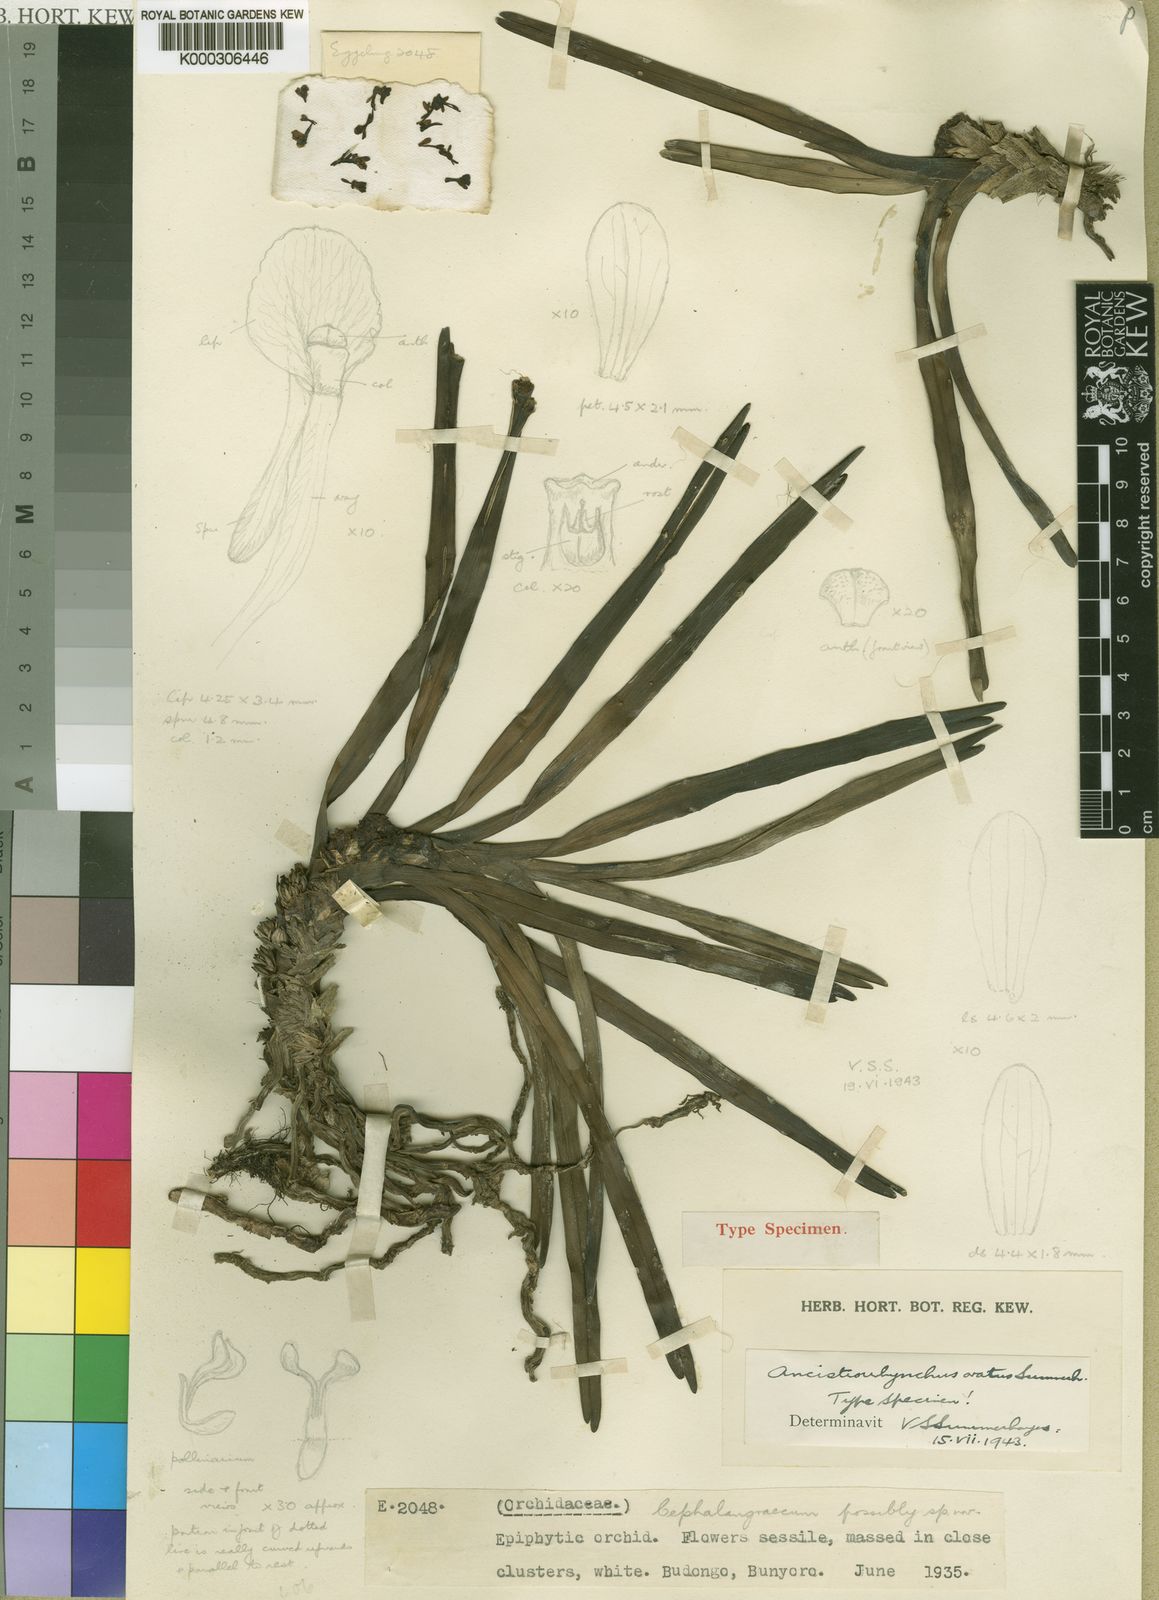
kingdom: Plantae
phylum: Tracheophyta
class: Liliopsida
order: Asparagales
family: Orchidaceae
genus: Ancistrorhynchus
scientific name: Ancistrorhynchus ovatus
